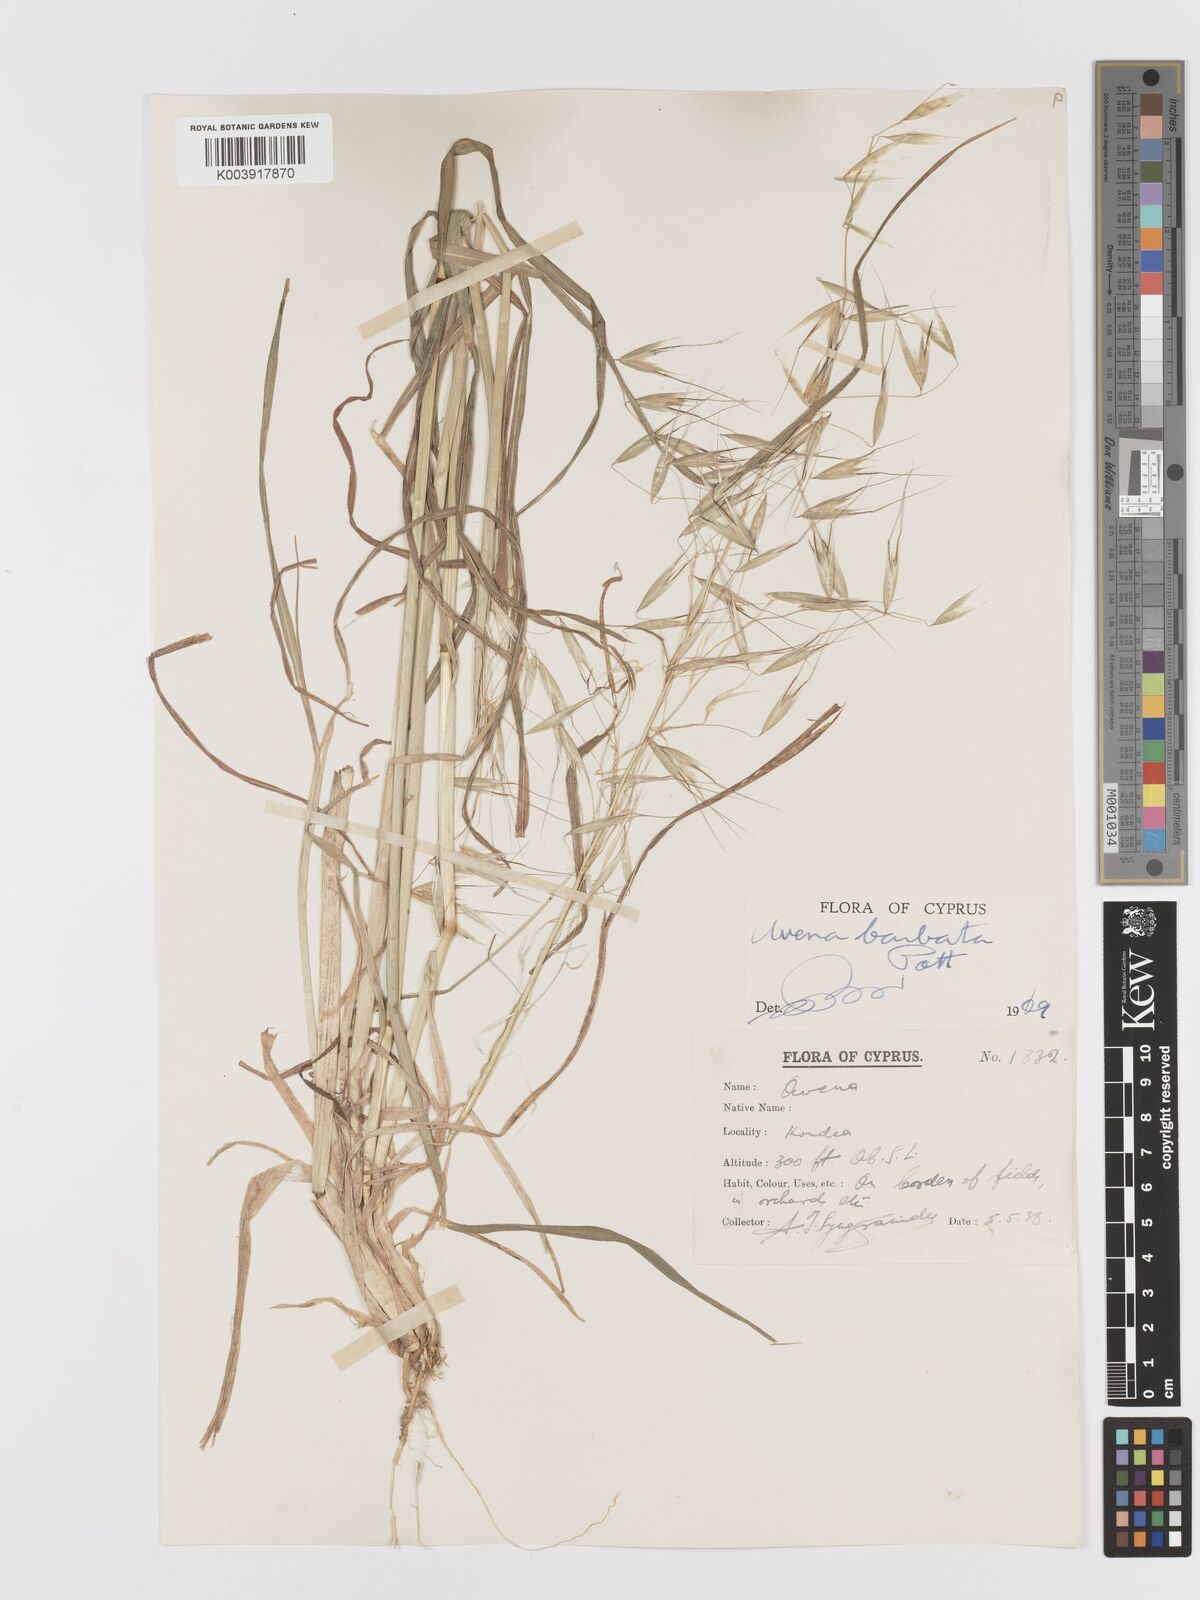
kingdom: Plantae
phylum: Tracheophyta
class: Liliopsida
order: Poales
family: Poaceae
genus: Avena
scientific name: Avena
